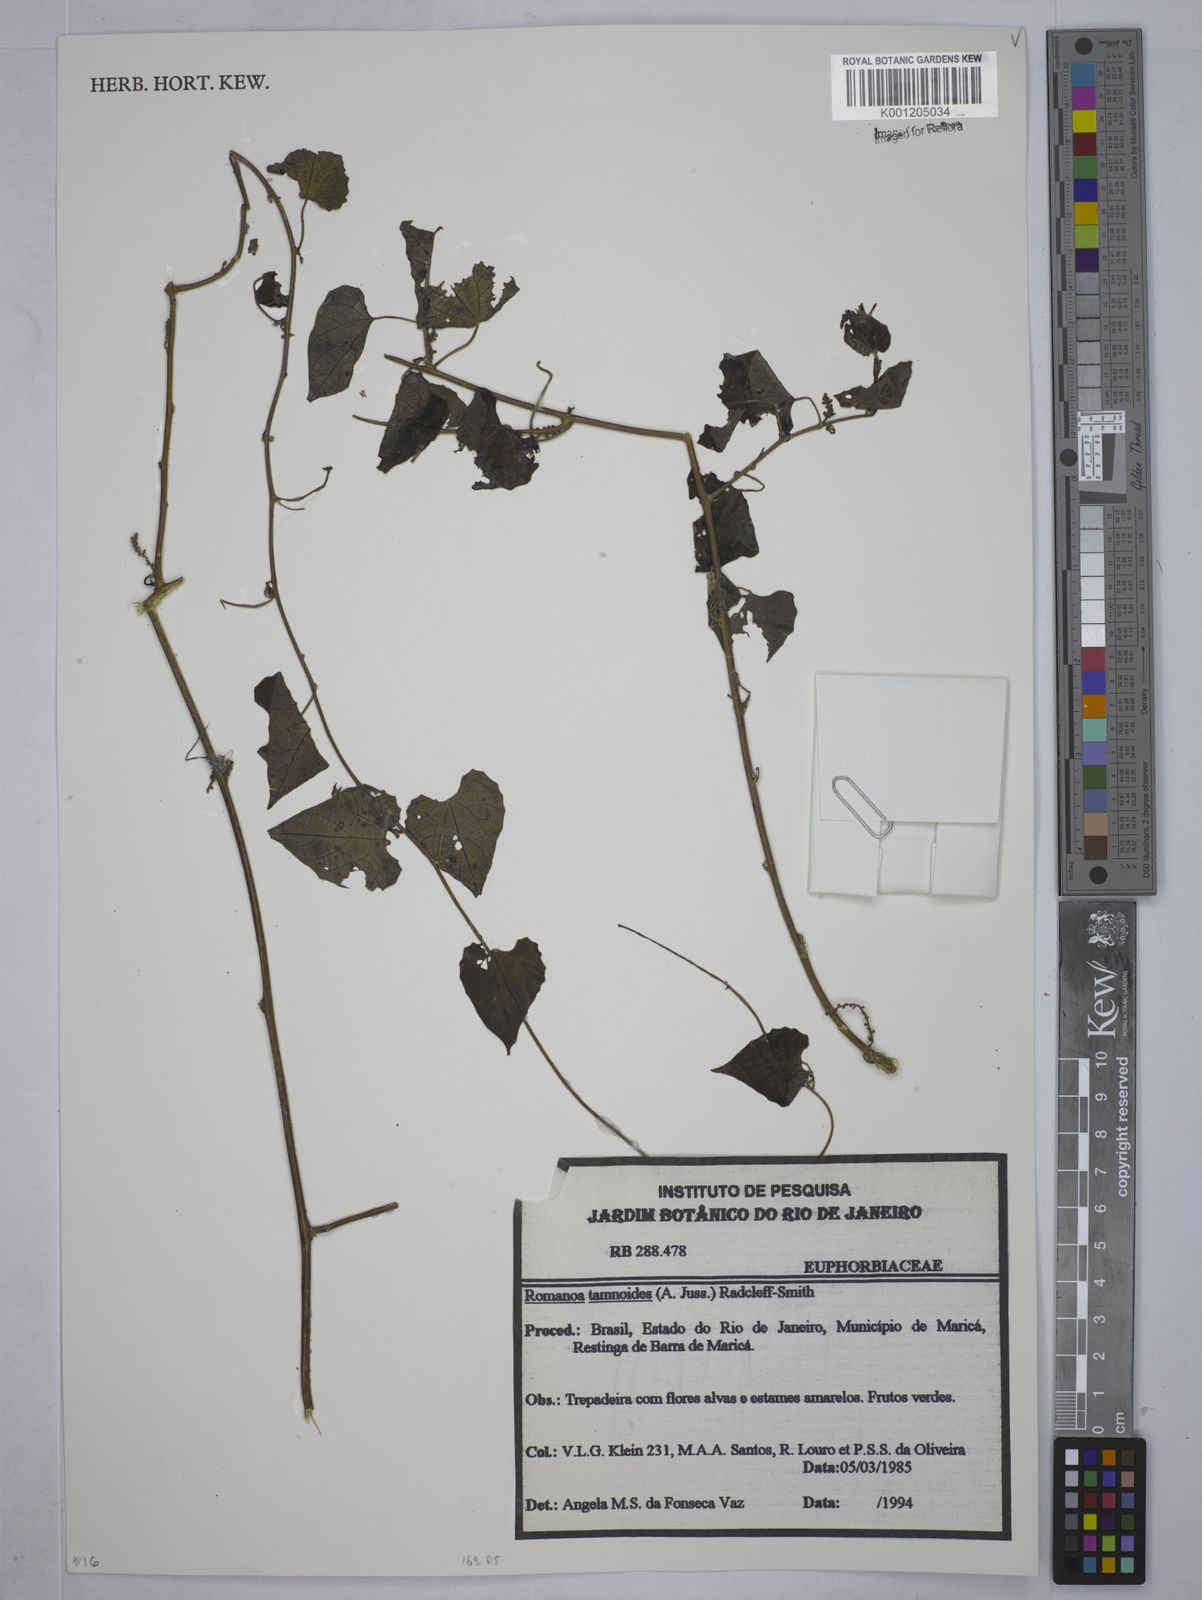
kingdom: Plantae
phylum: Tracheophyta
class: Magnoliopsida
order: Malpighiales
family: Euphorbiaceae
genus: Romanoa
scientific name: Romanoa tamnoides
